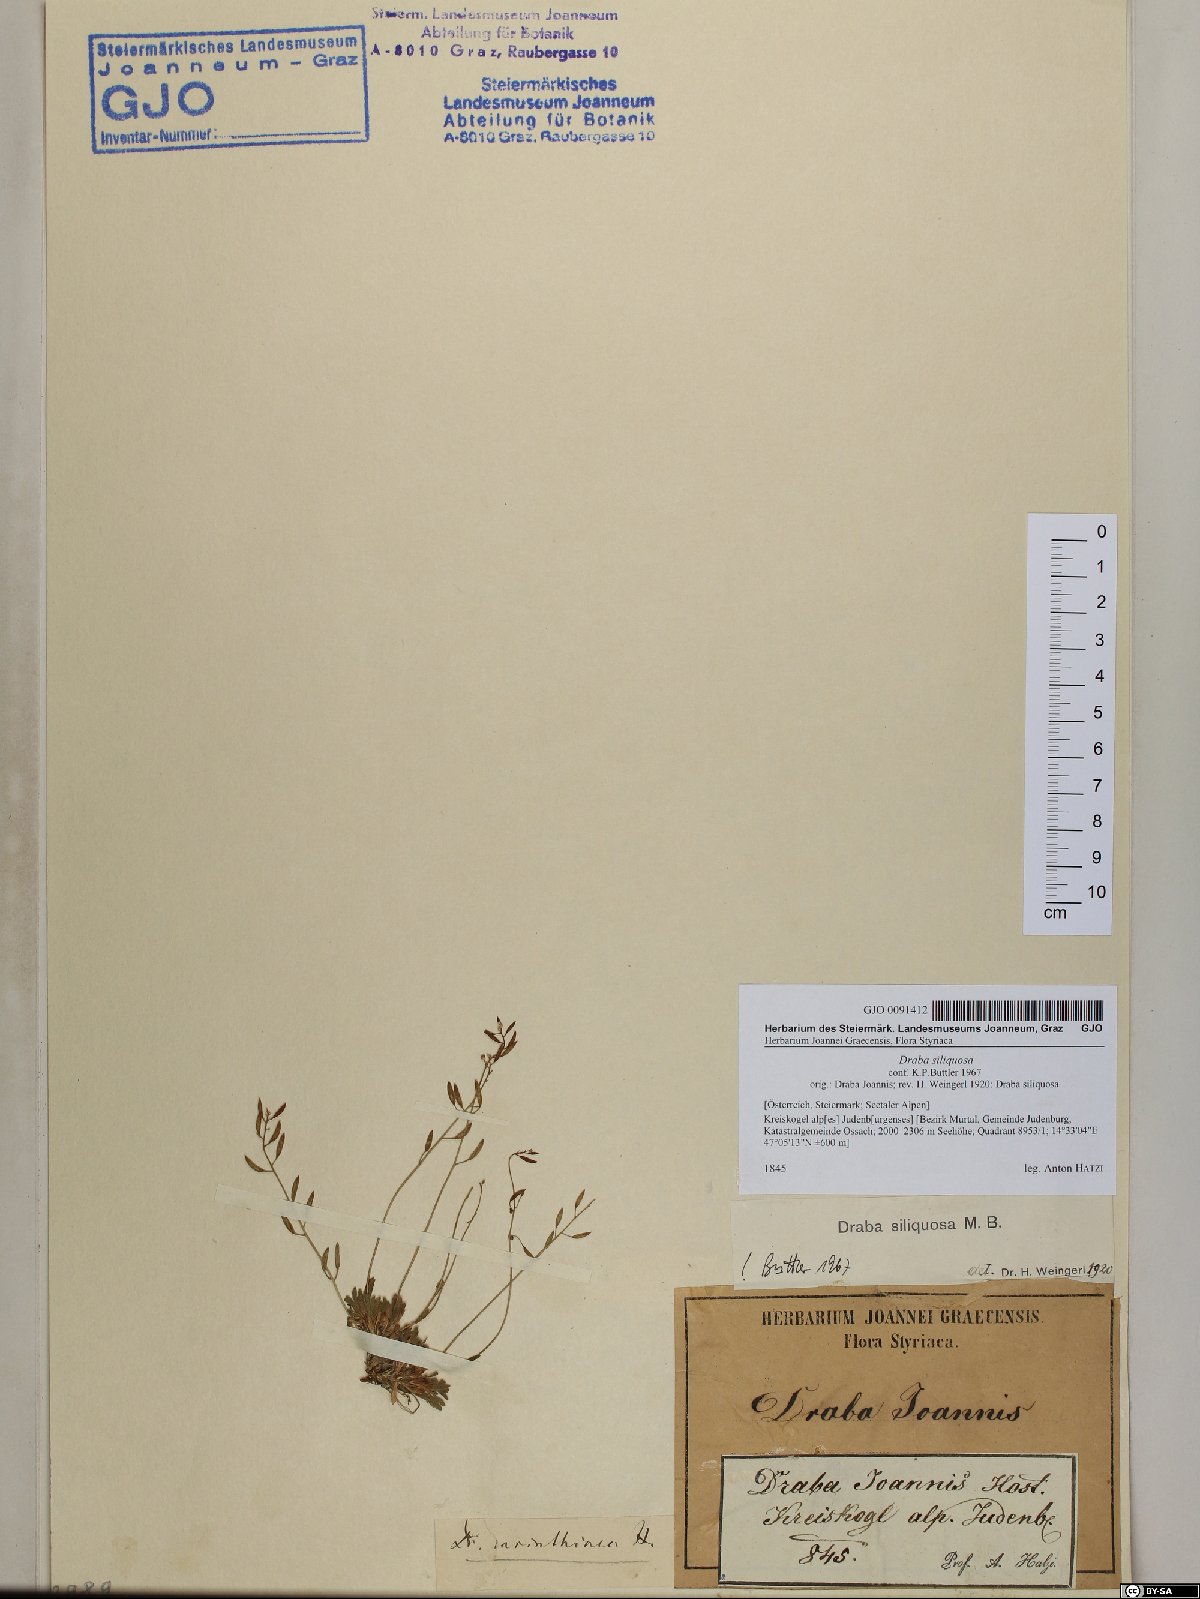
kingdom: Plantae
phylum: Tracheophyta
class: Magnoliopsida
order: Brassicales
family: Brassicaceae
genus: Draba
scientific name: Draba siliquosa
